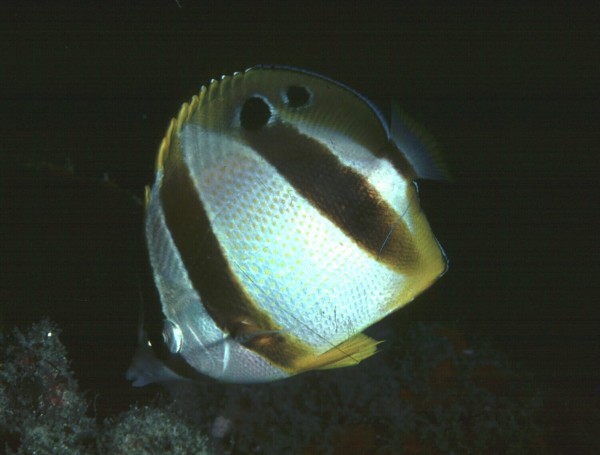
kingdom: Animalia
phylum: Chordata
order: Perciformes
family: Chaetodontidae
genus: Chaetodon
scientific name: Chaetodon marleyi
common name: Doubledash butterflyfish
